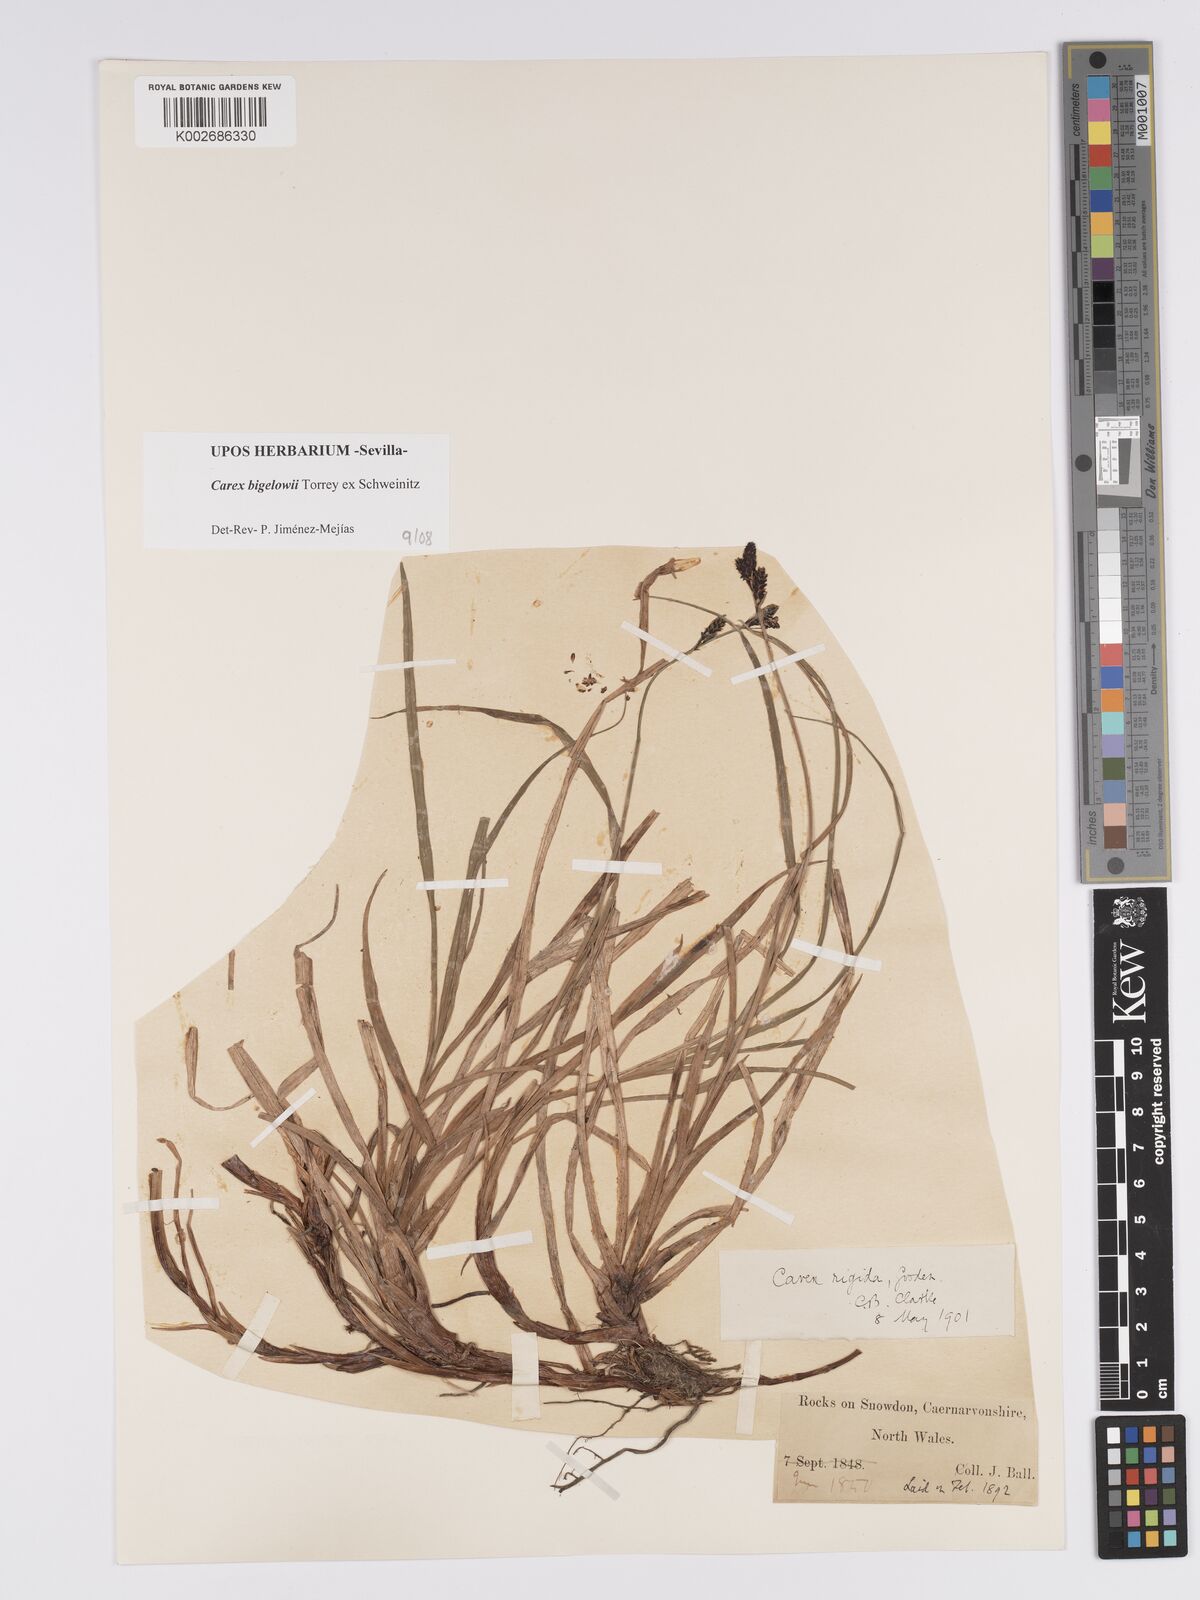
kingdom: Plantae
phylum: Tracheophyta
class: Liliopsida
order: Poales
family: Cyperaceae
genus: Carex
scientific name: Carex bigelowii
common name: Stiff sedge
